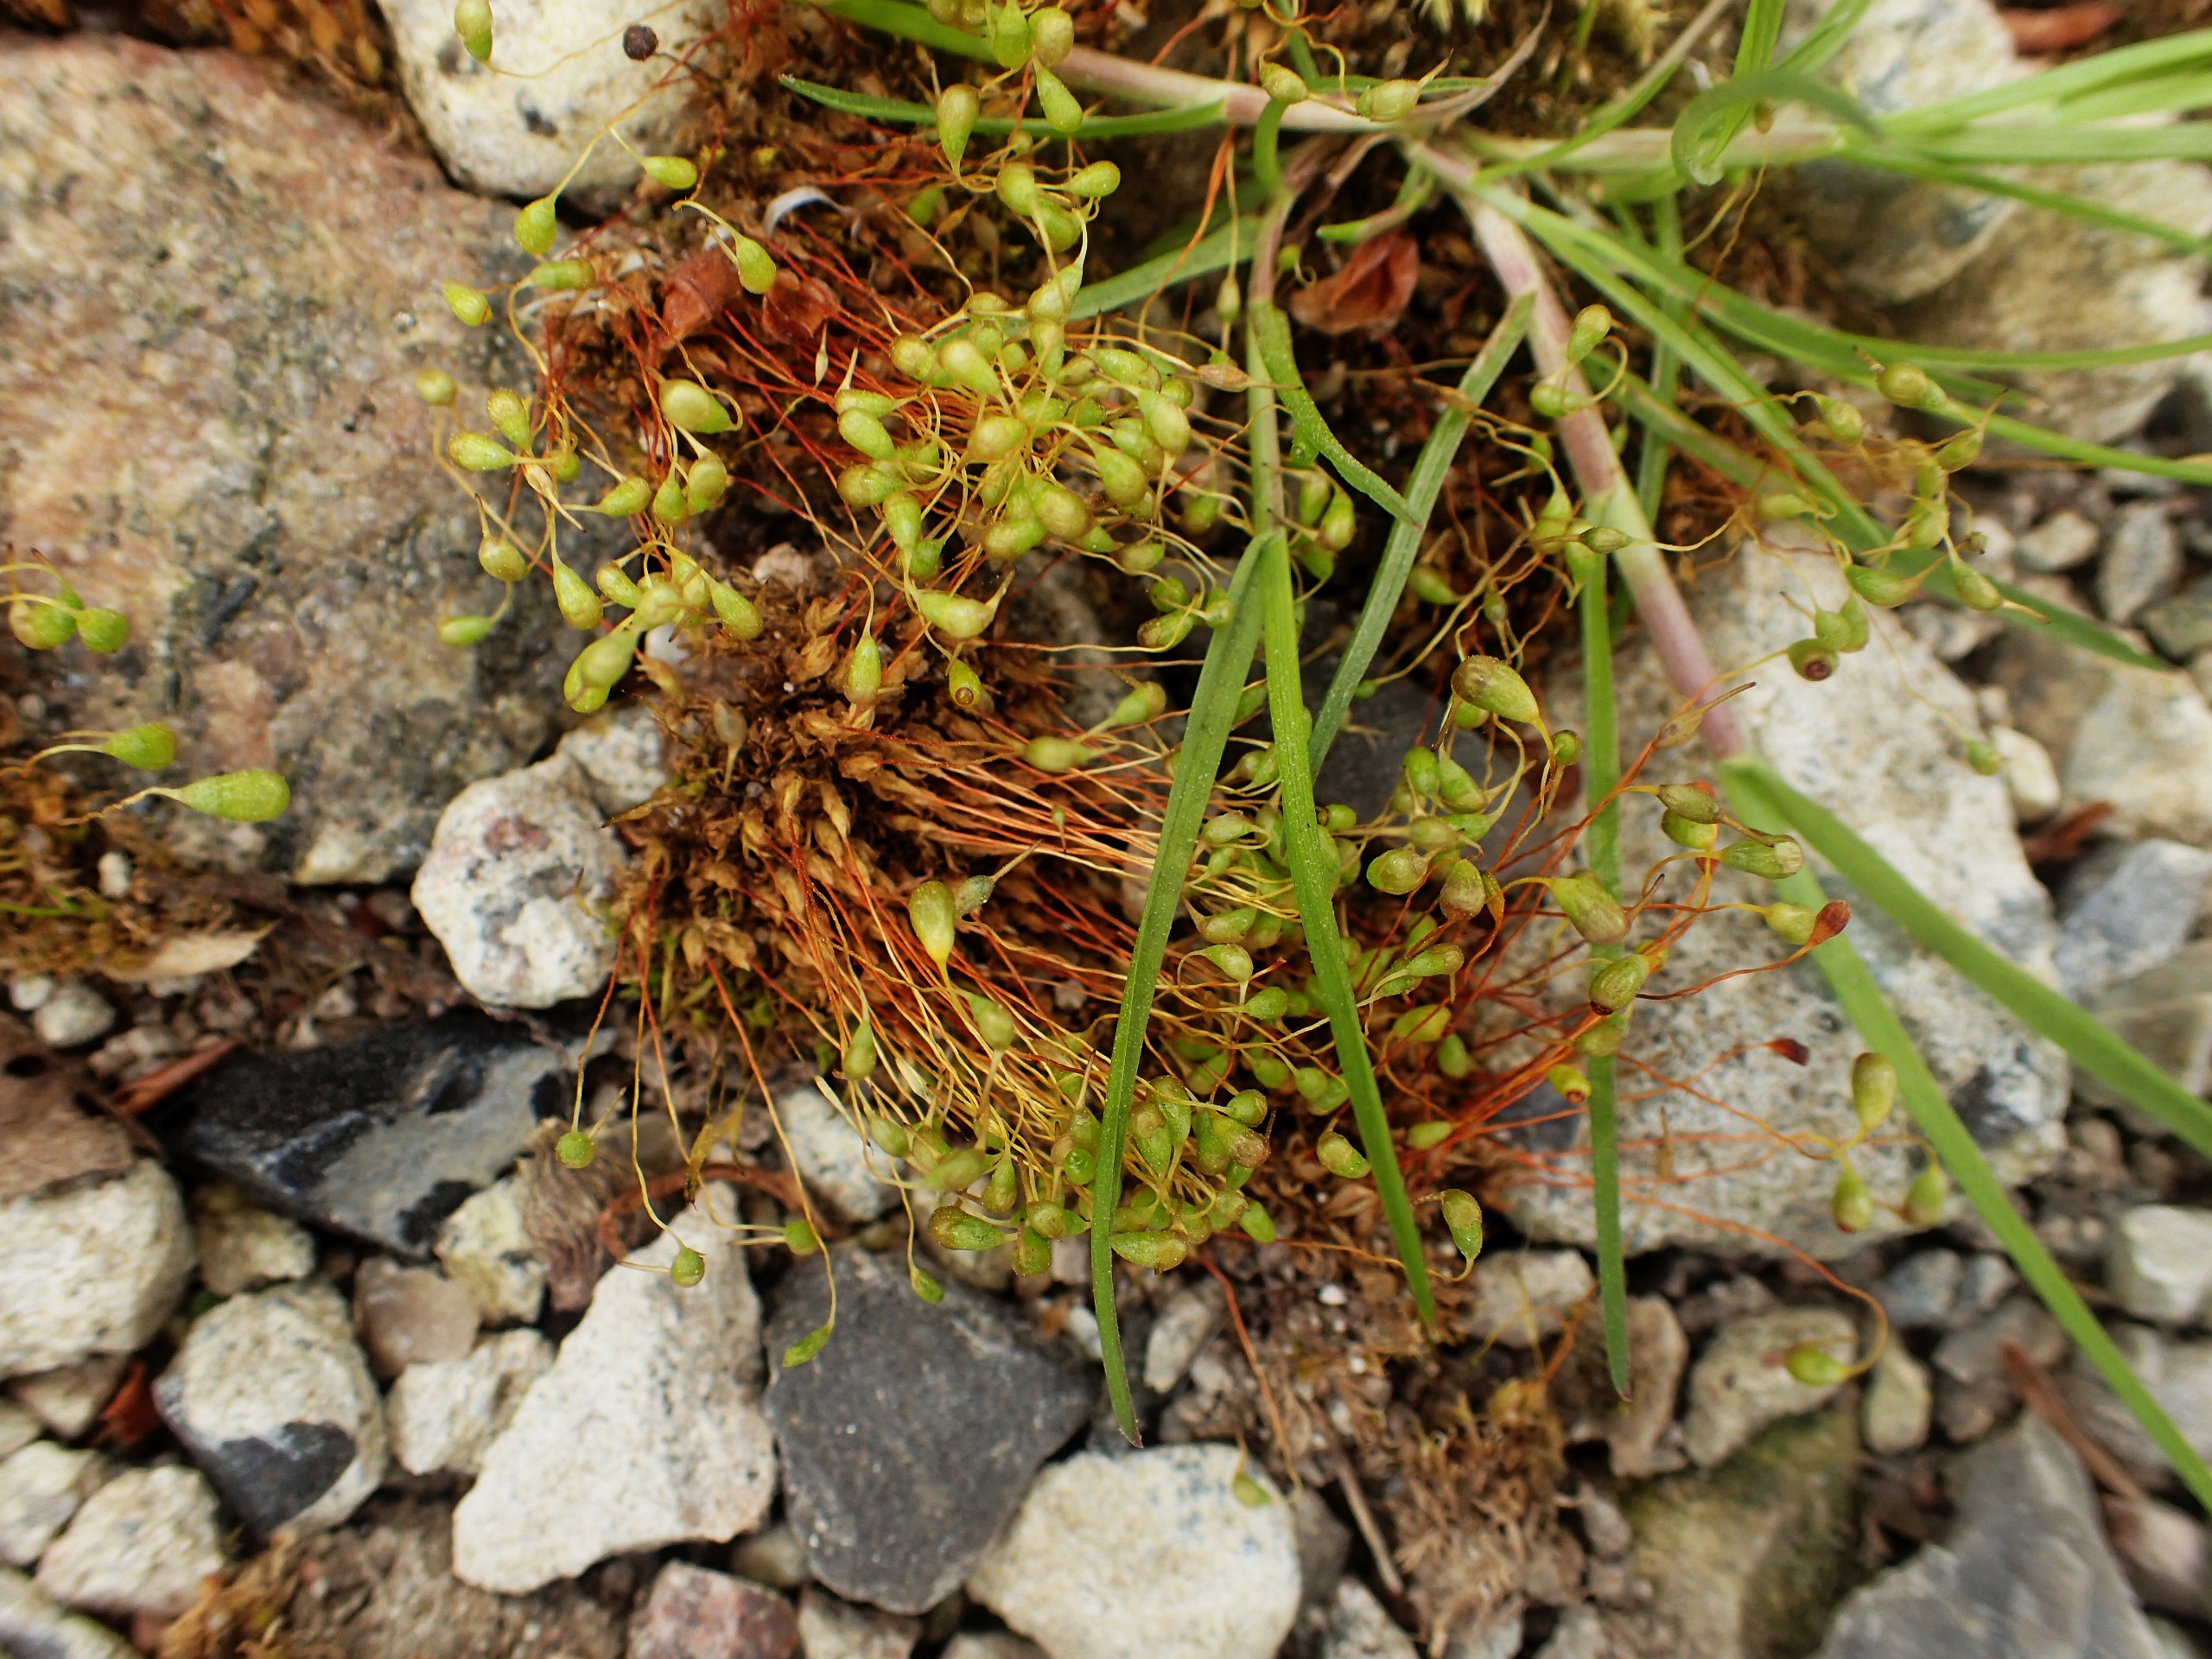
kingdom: Plantae
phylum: Bryophyta
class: Bryopsida
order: Funariales
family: Funariaceae
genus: Funaria
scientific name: Funaria hygrometrica
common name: Almindelig snobørste
